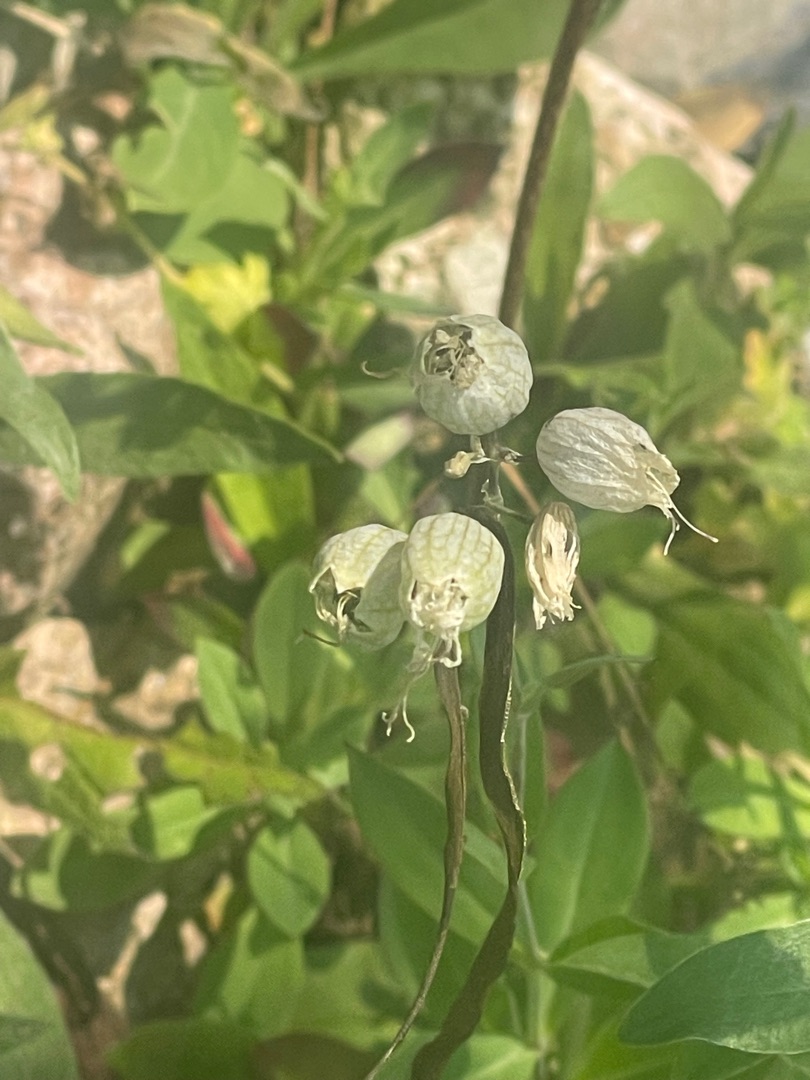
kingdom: Plantae
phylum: Tracheophyta
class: Magnoliopsida
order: Caryophyllales
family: Caryophyllaceae
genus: Silene
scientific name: Silene vulgaris
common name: Blæresmælde
